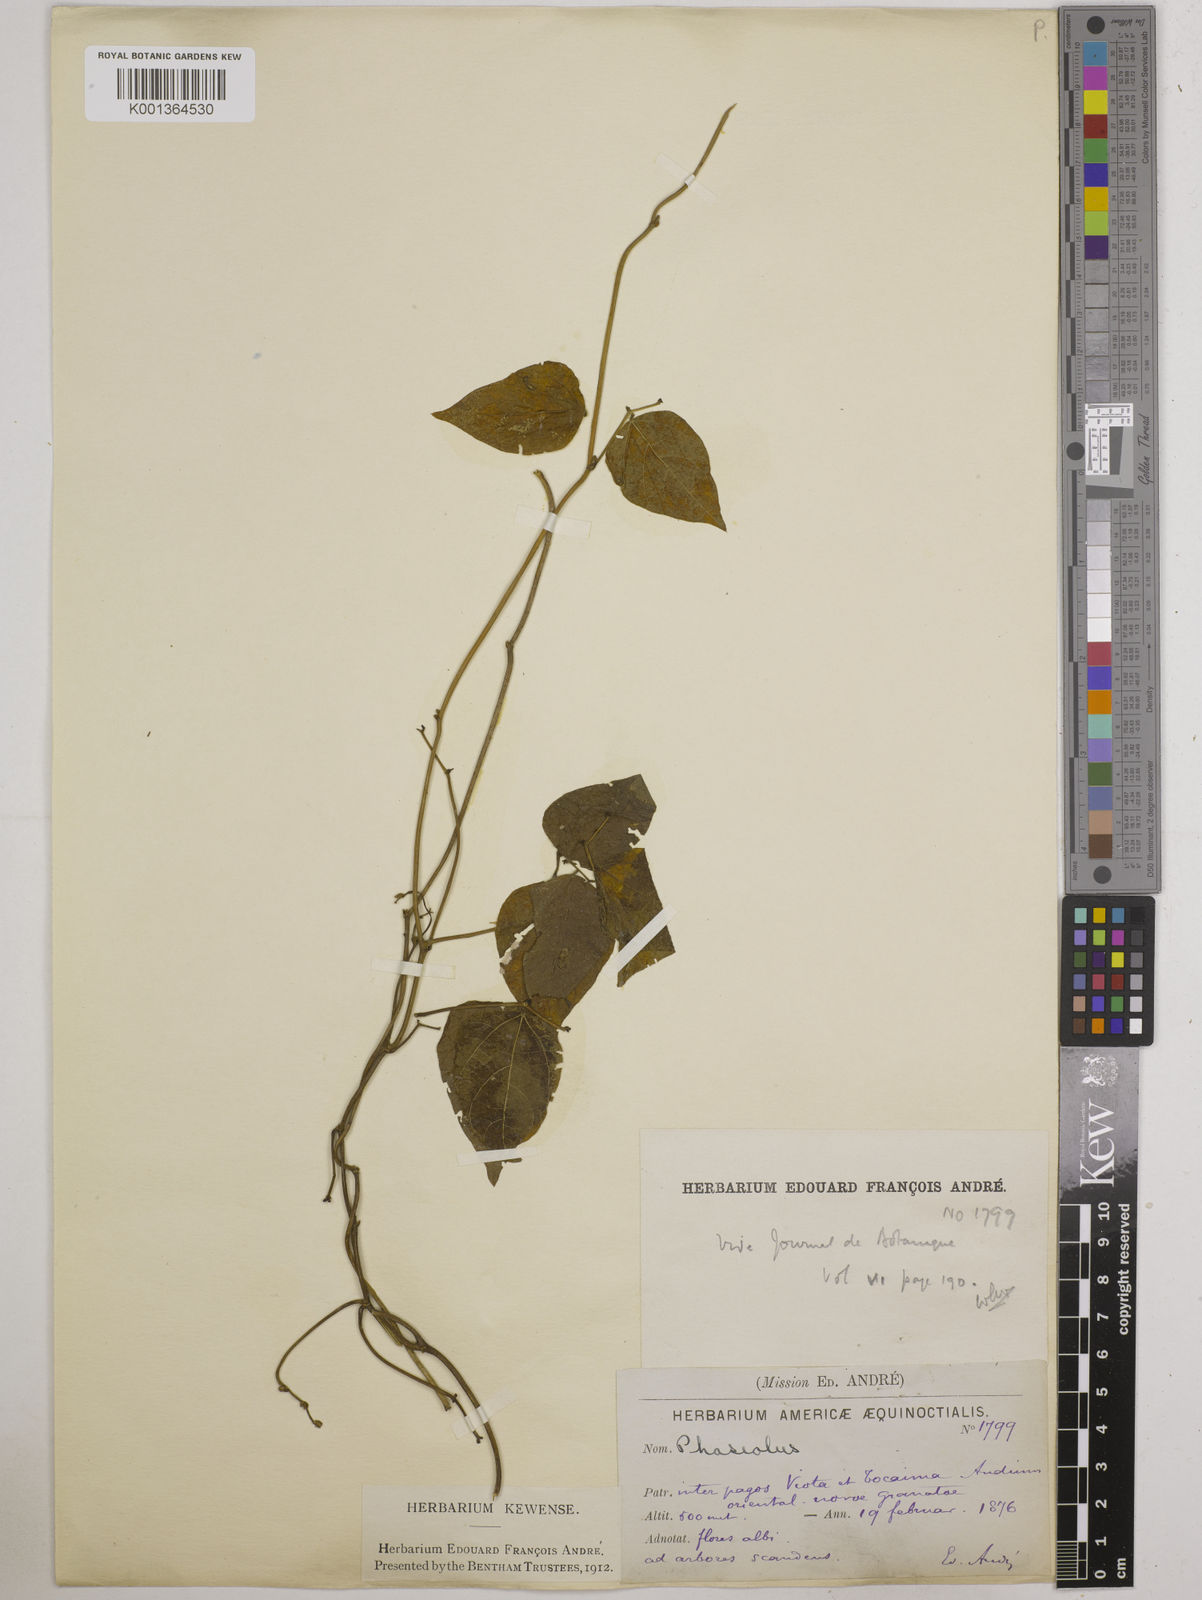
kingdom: Plantae
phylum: Tracheophyta
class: Magnoliopsida
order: Fabales
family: Fabaceae
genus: Phaseolus
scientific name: Phaseolus
